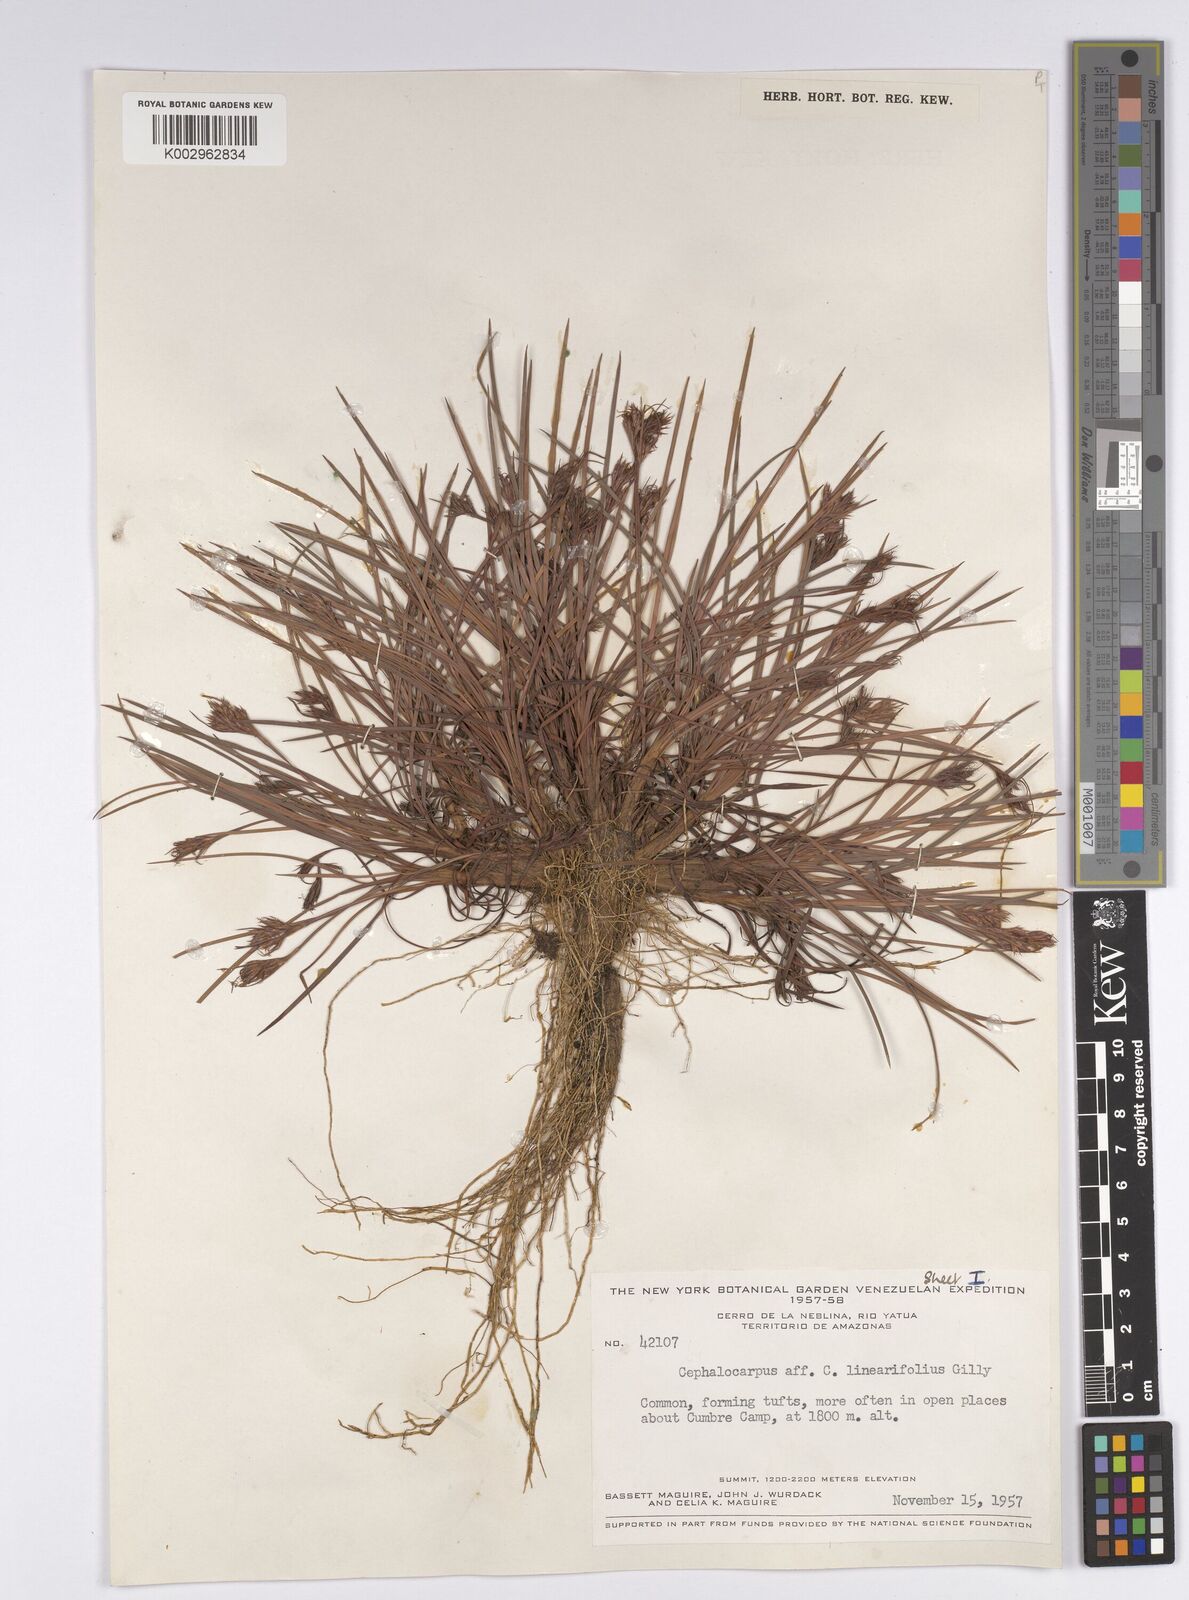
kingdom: Plantae
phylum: Tracheophyta
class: Liliopsida
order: Poales
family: Cyperaceae
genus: Cephalocarpus
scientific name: Cephalocarpus rigidus
